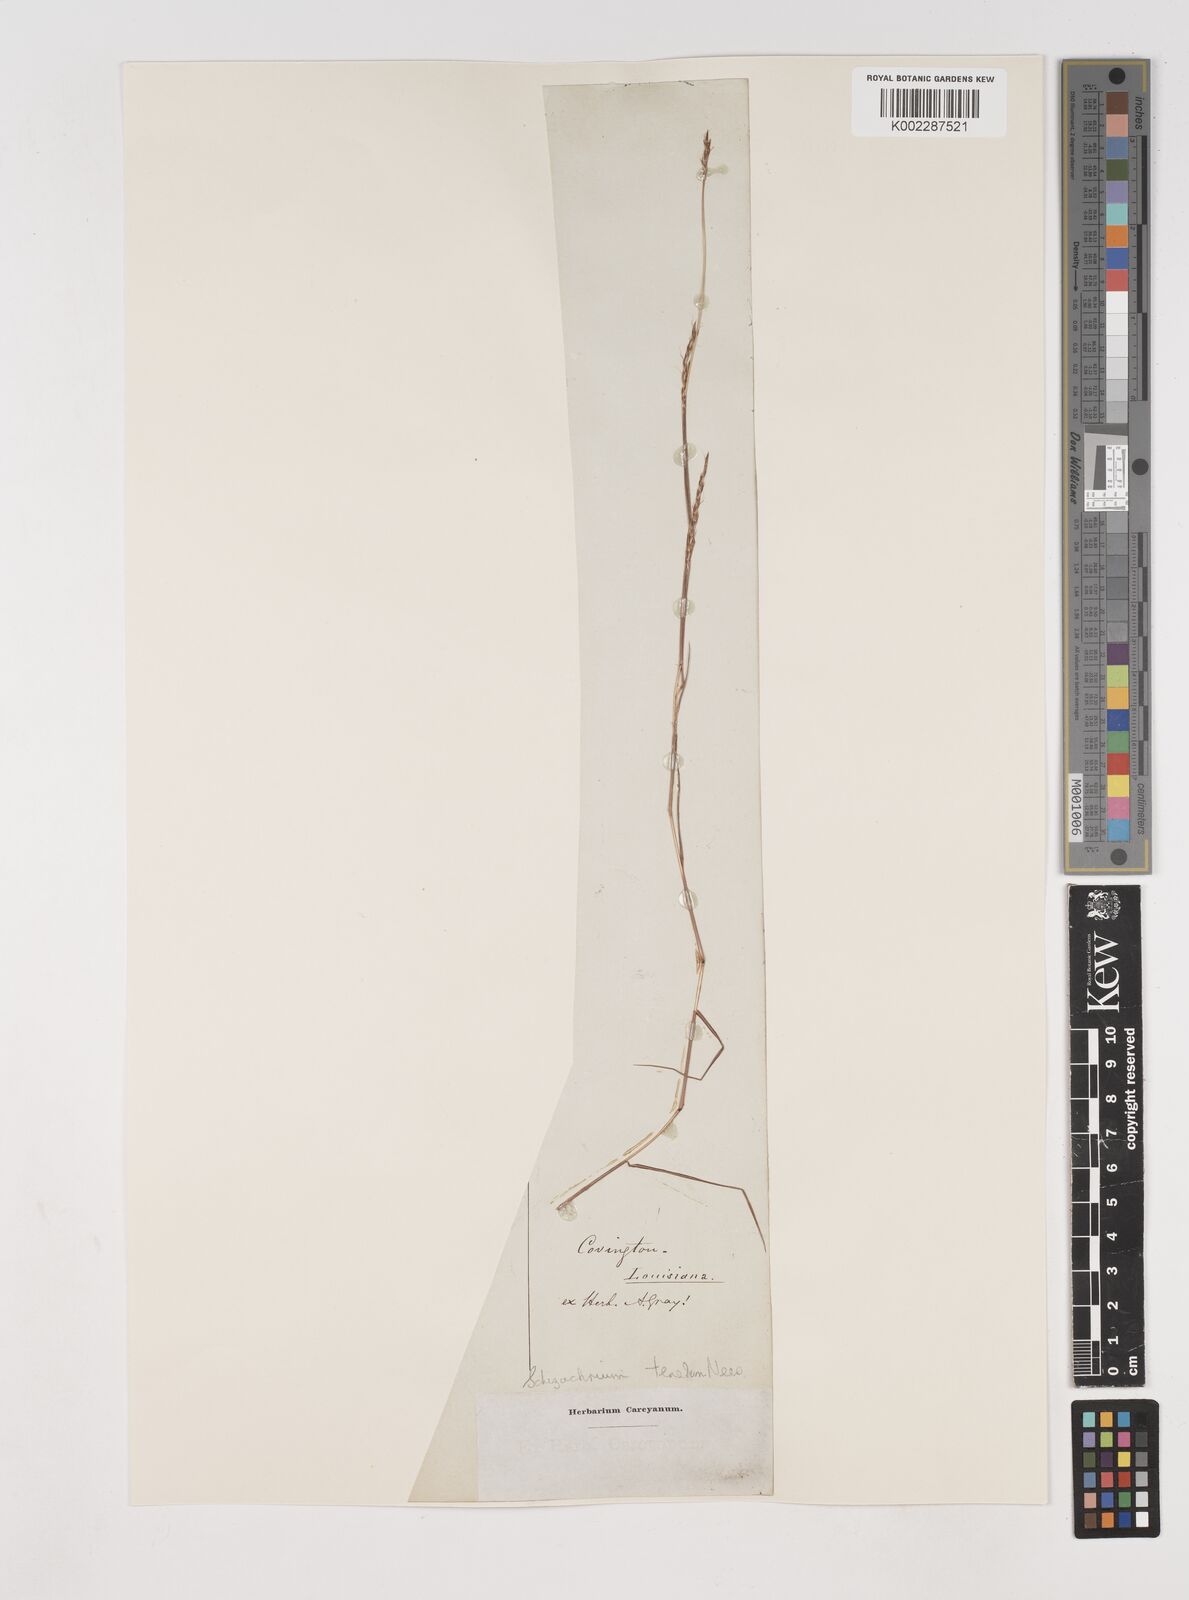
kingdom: Plantae
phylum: Tracheophyta
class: Liliopsida
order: Poales
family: Poaceae
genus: Andropogon
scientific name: Andropogon tener
